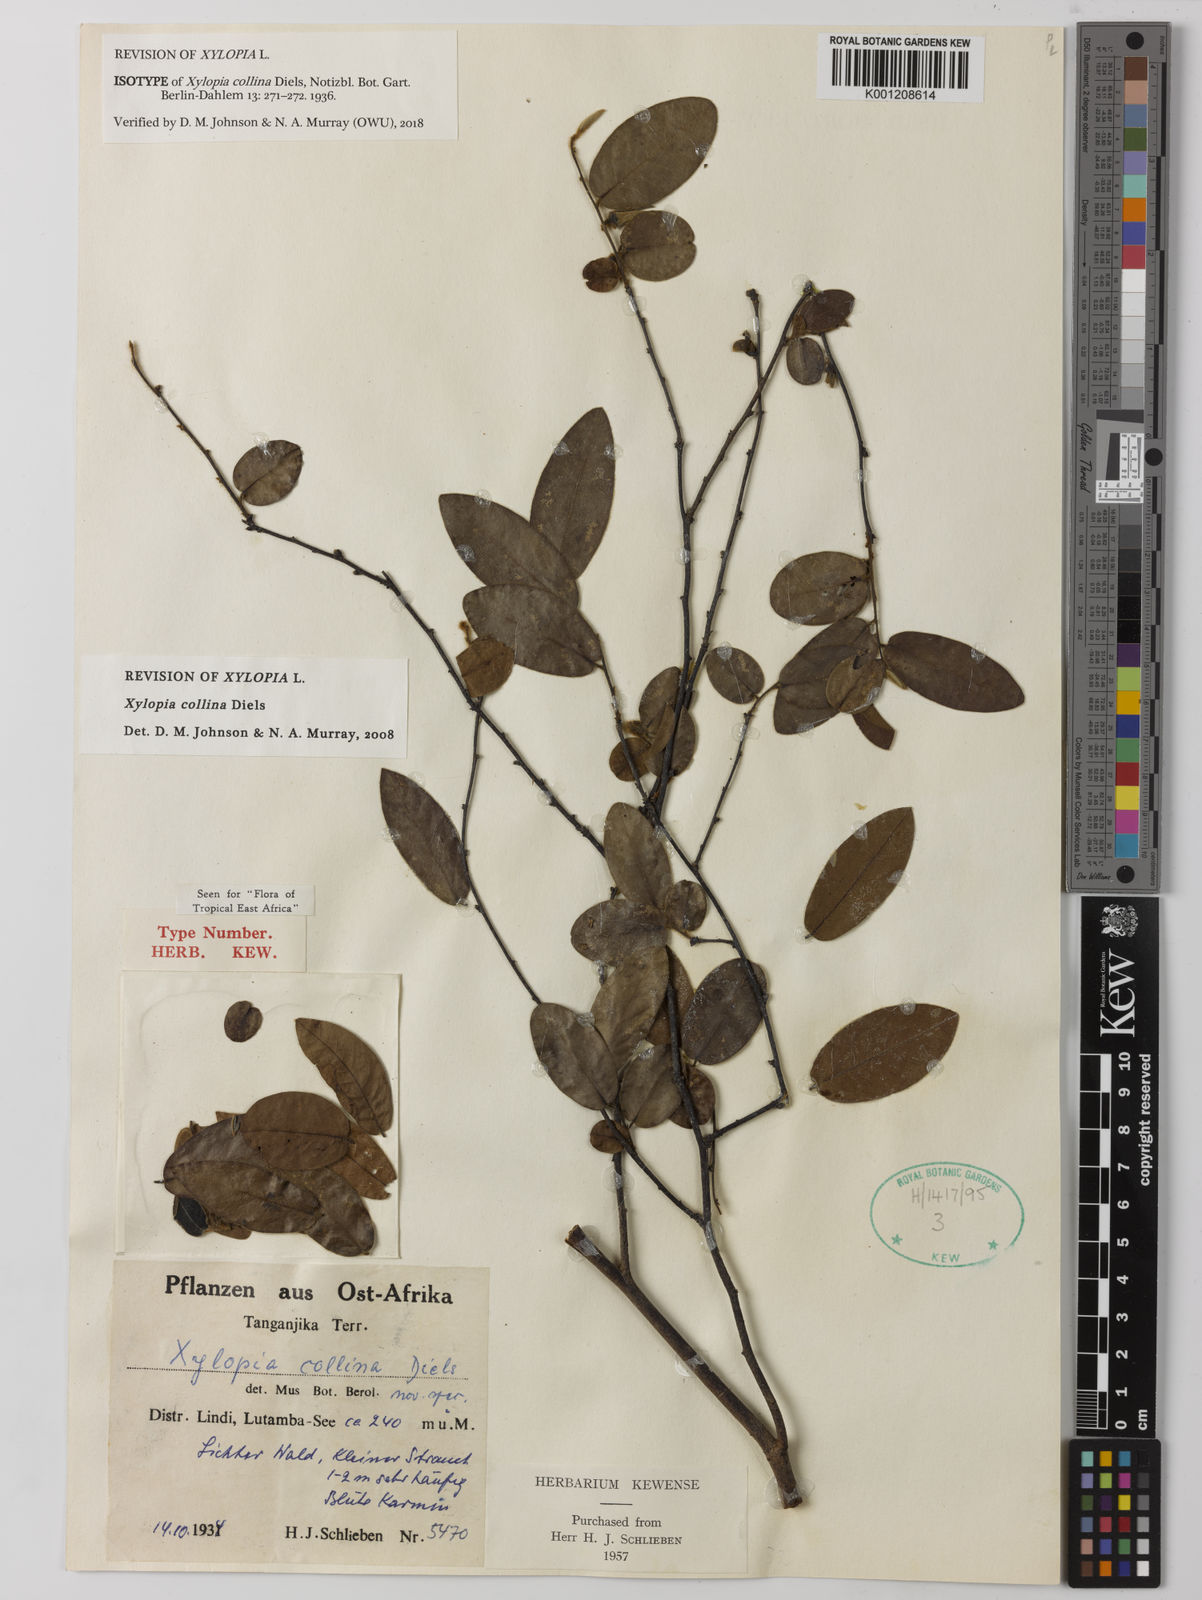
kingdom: Plantae
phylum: Tracheophyta
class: Magnoliopsida
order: Magnoliales
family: Annonaceae
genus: Xylopia
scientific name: Xylopia collina
